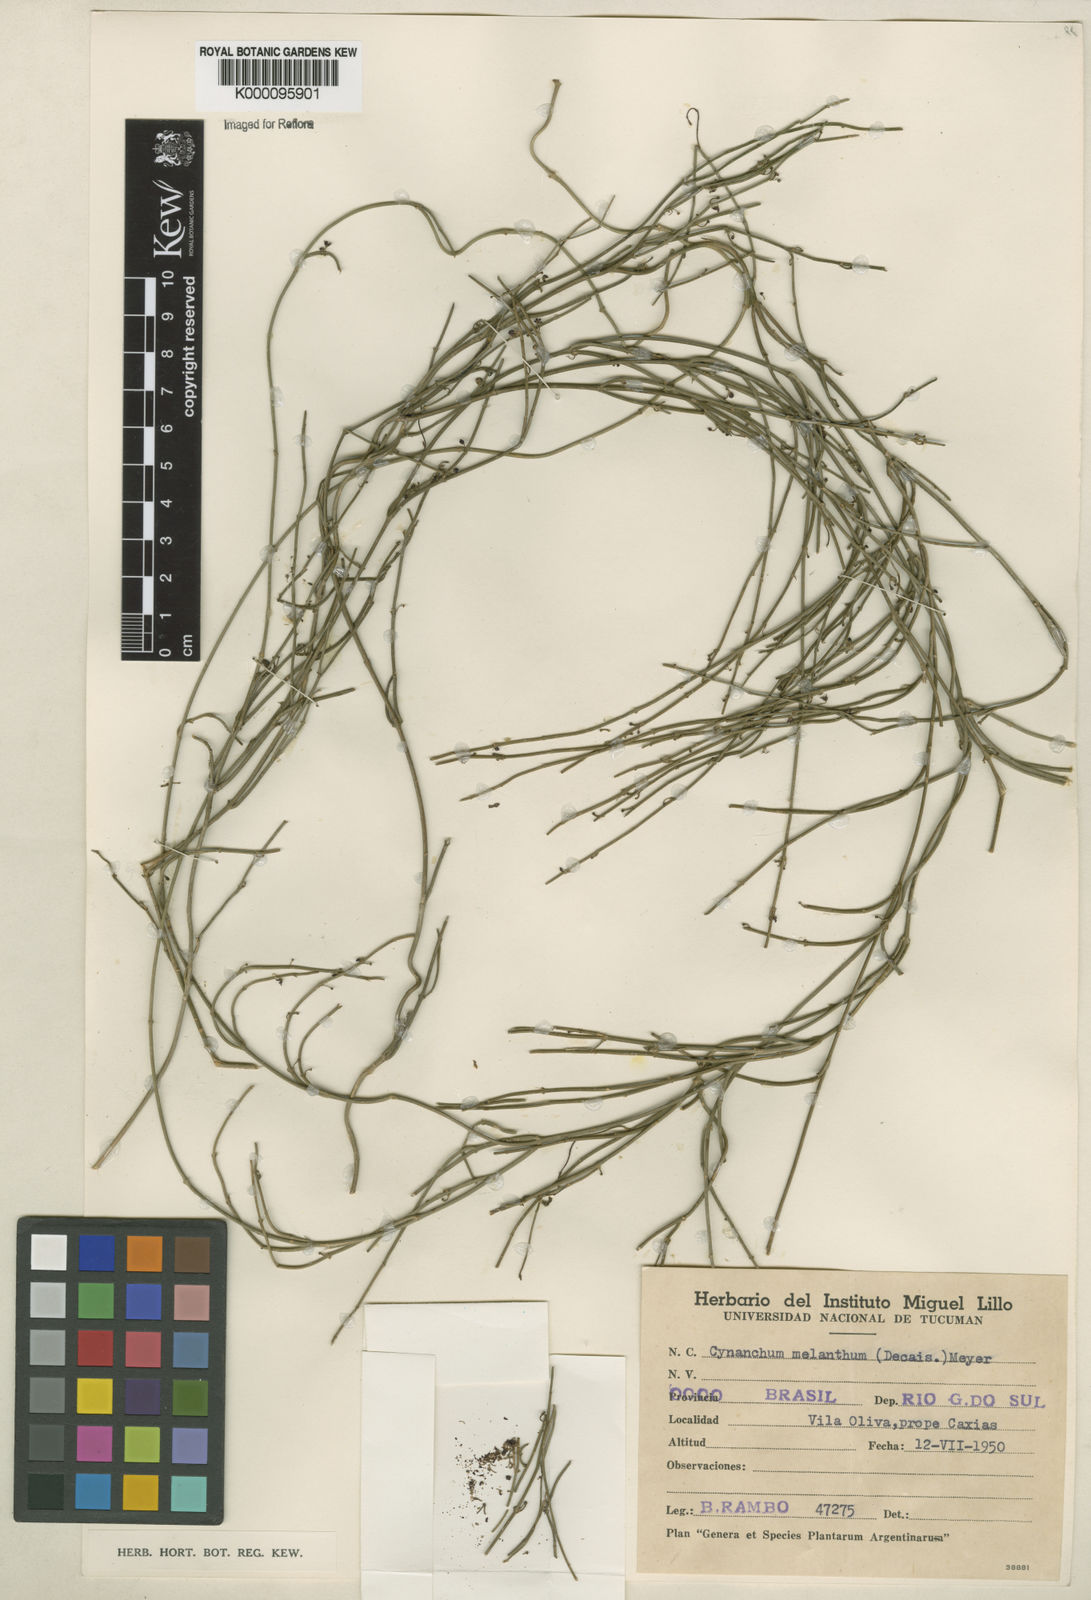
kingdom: Plantae
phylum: Tracheophyta
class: Magnoliopsida
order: Gentianales
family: Apocynaceae
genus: Orthosia
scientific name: Orthosia scoparia
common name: Leafless swallow-wort
